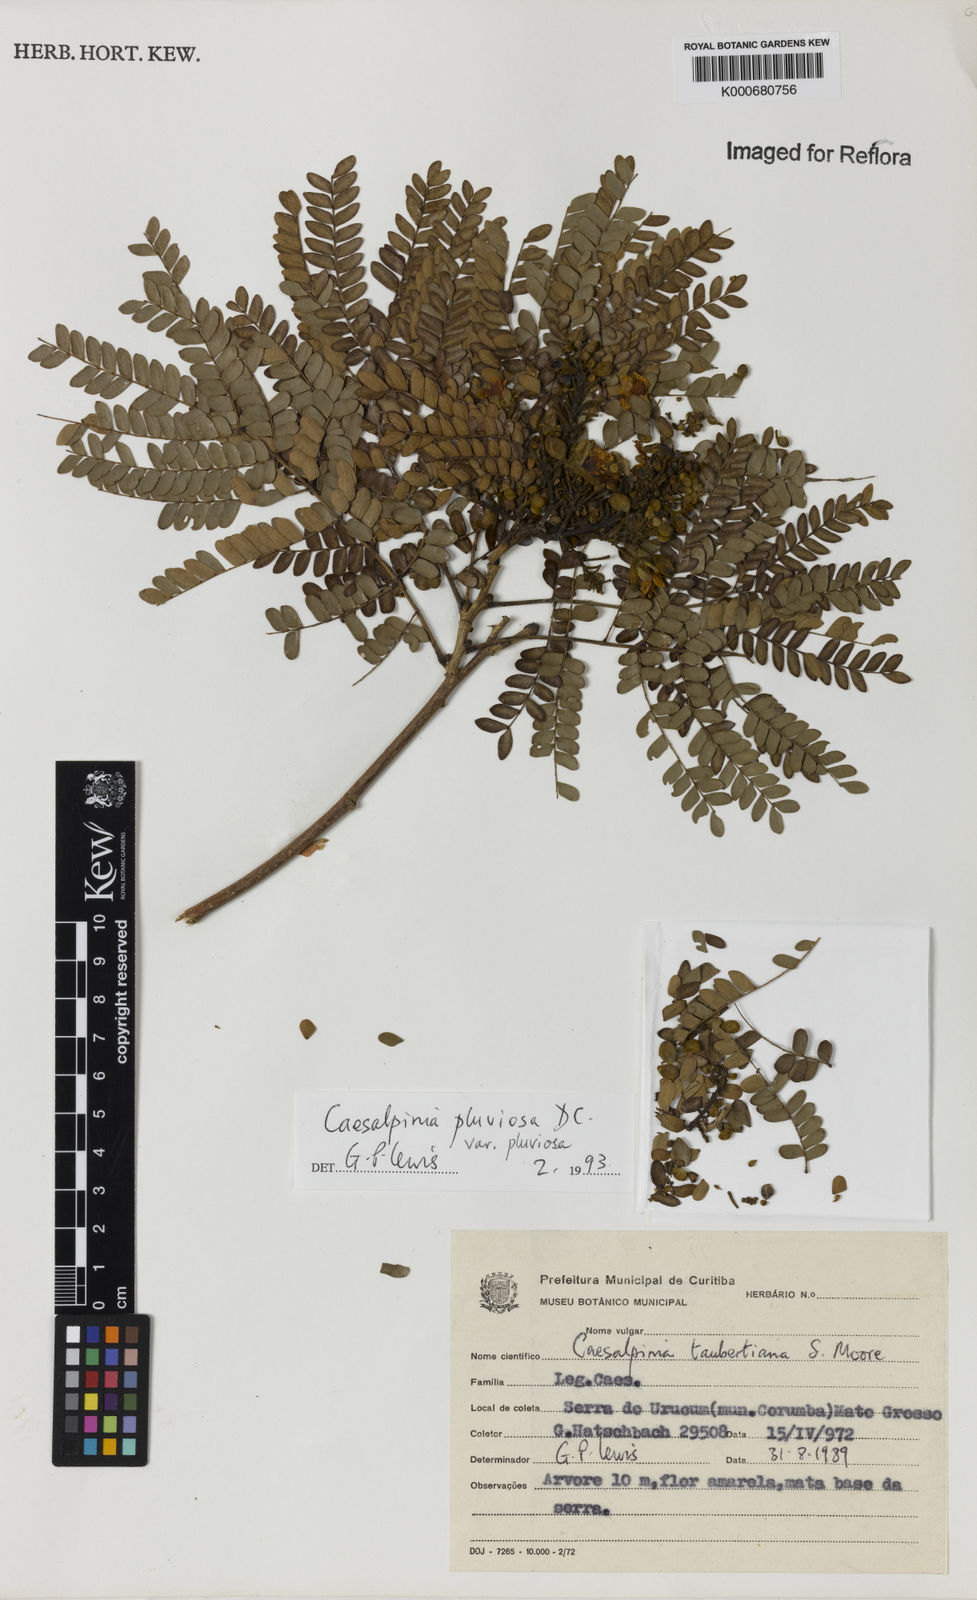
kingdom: Plantae
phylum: Tracheophyta
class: Magnoliopsida
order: Fabales
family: Fabaceae
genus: Cenostigma
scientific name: Cenostigma pluviosum
